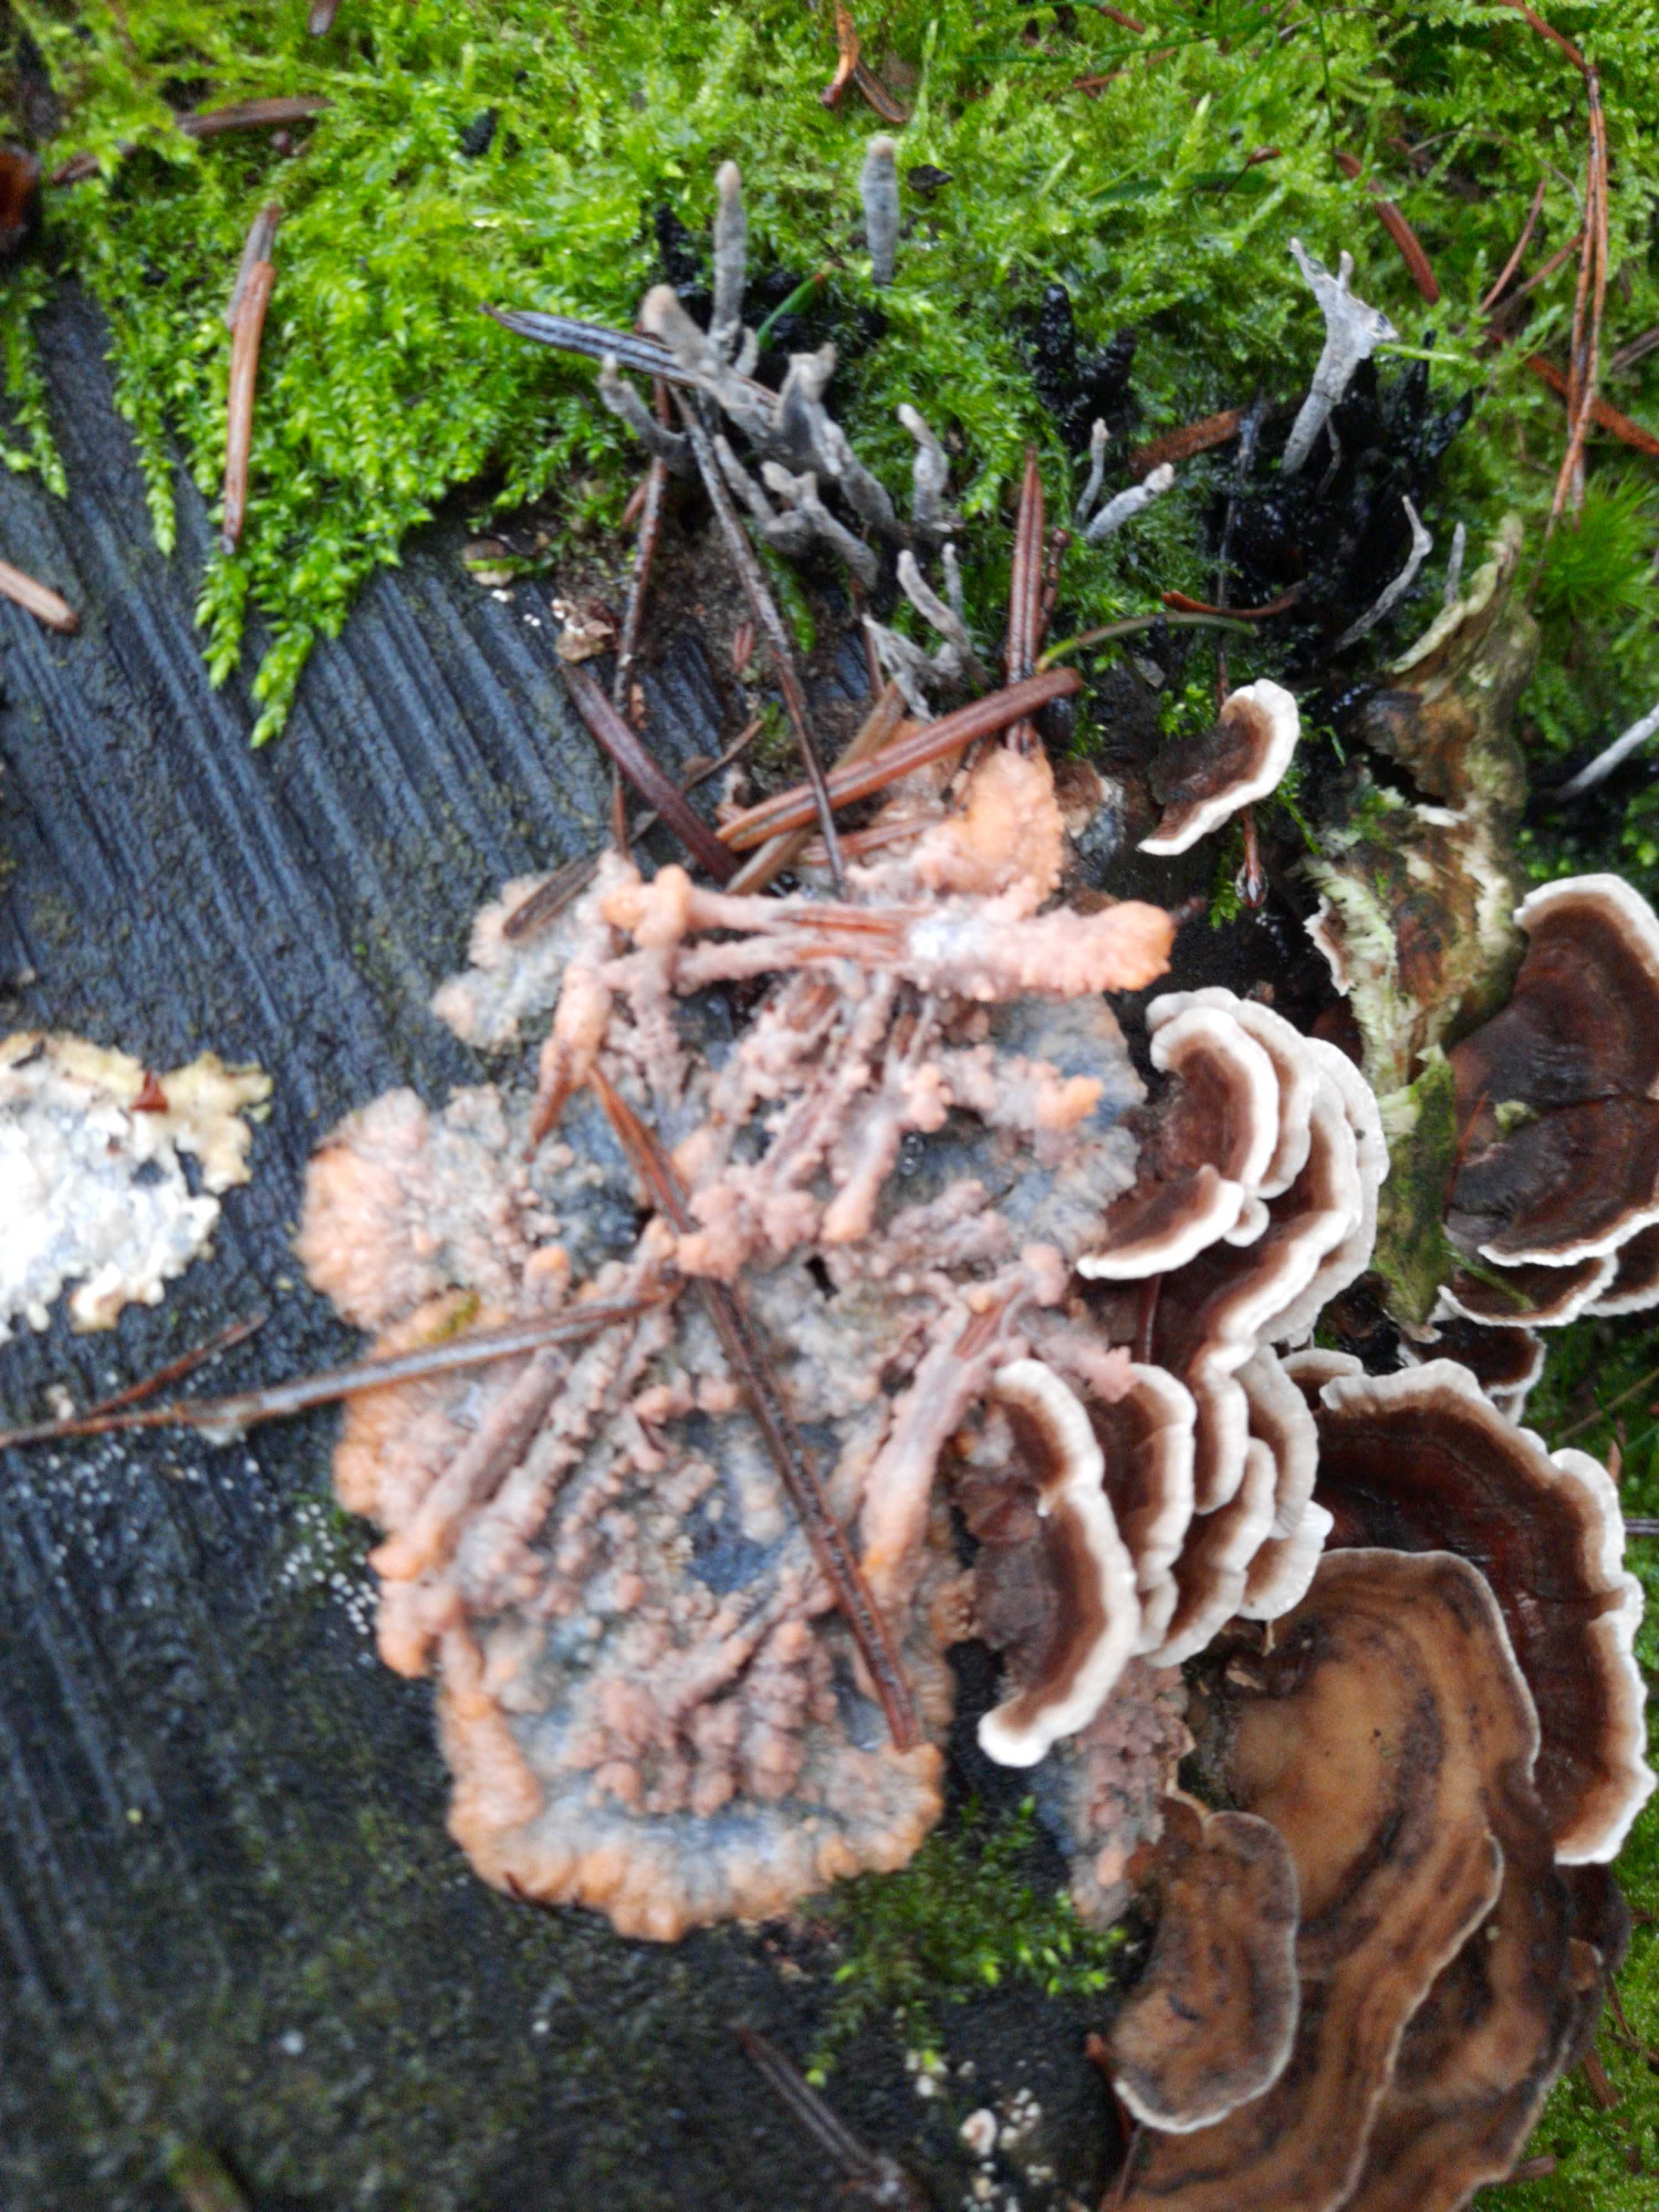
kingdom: Fungi
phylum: Basidiomycota
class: Agaricomycetes
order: Polyporales
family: Meruliaceae
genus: Phlebia
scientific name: Phlebia radiata
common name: stråle-åresvamp
